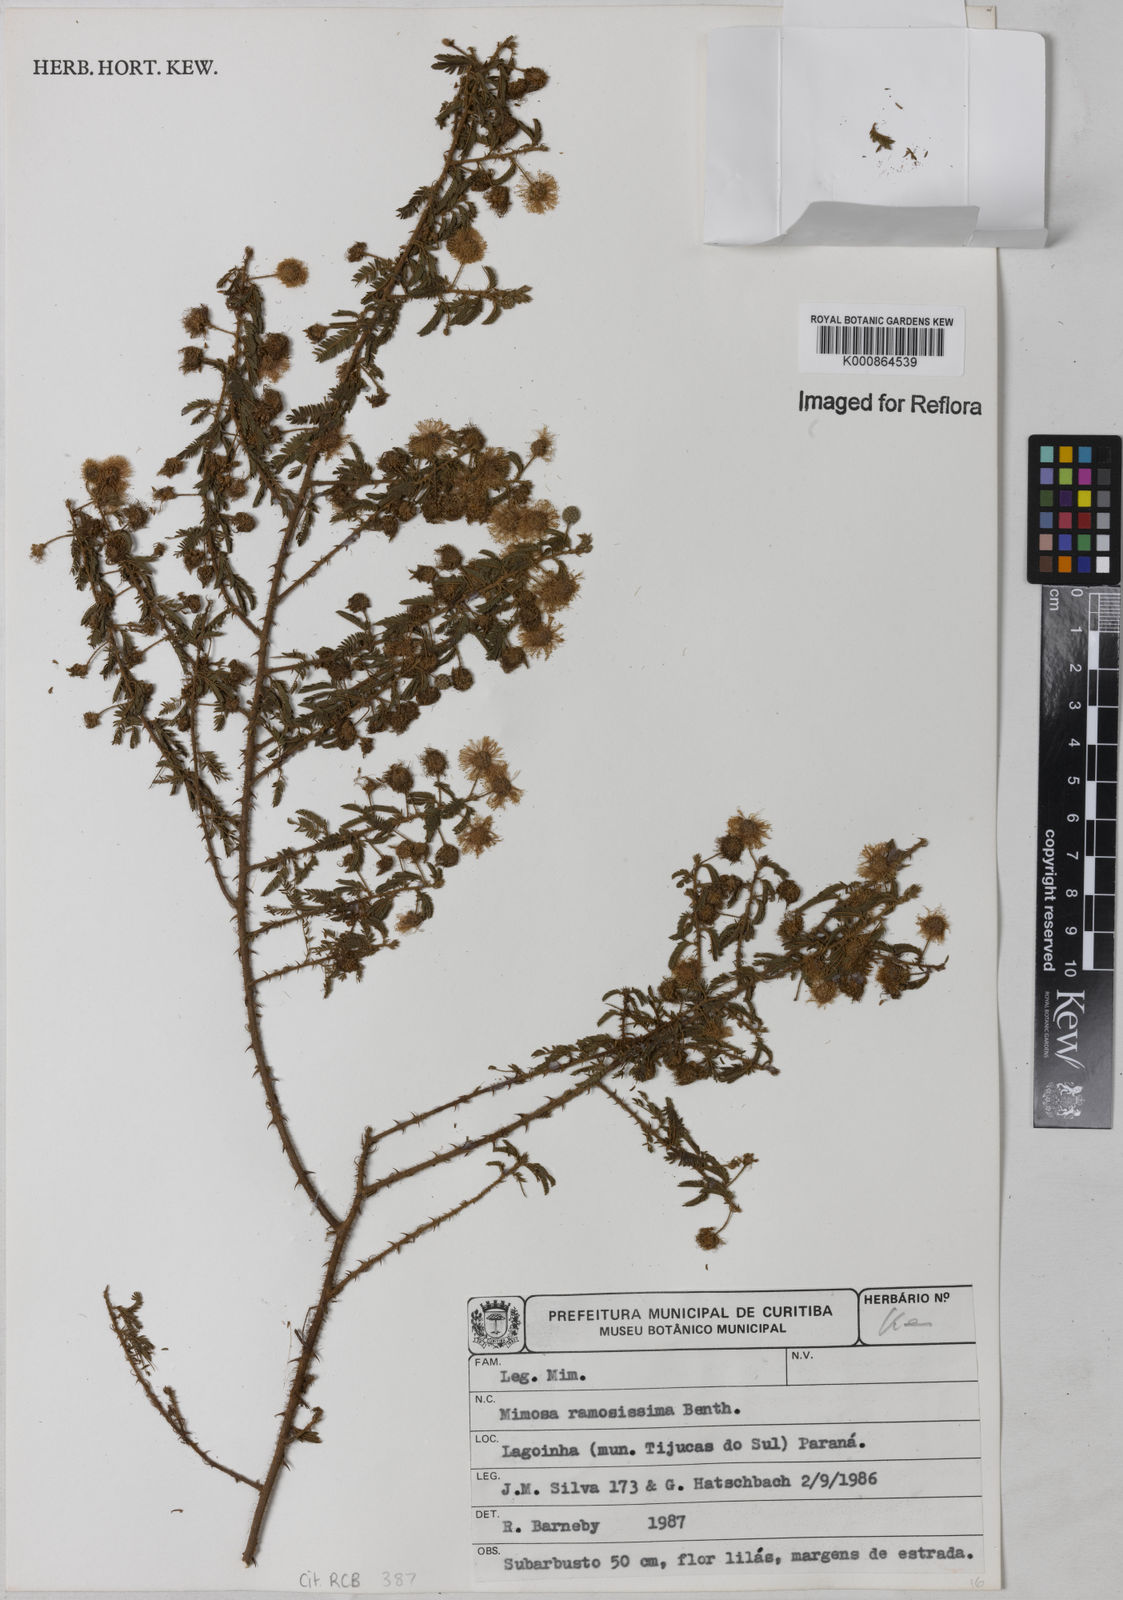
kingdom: Plantae
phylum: Tracheophyta
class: Magnoliopsida
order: Fabales
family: Fabaceae
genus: Mimosa
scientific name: Mimosa ramosissima
